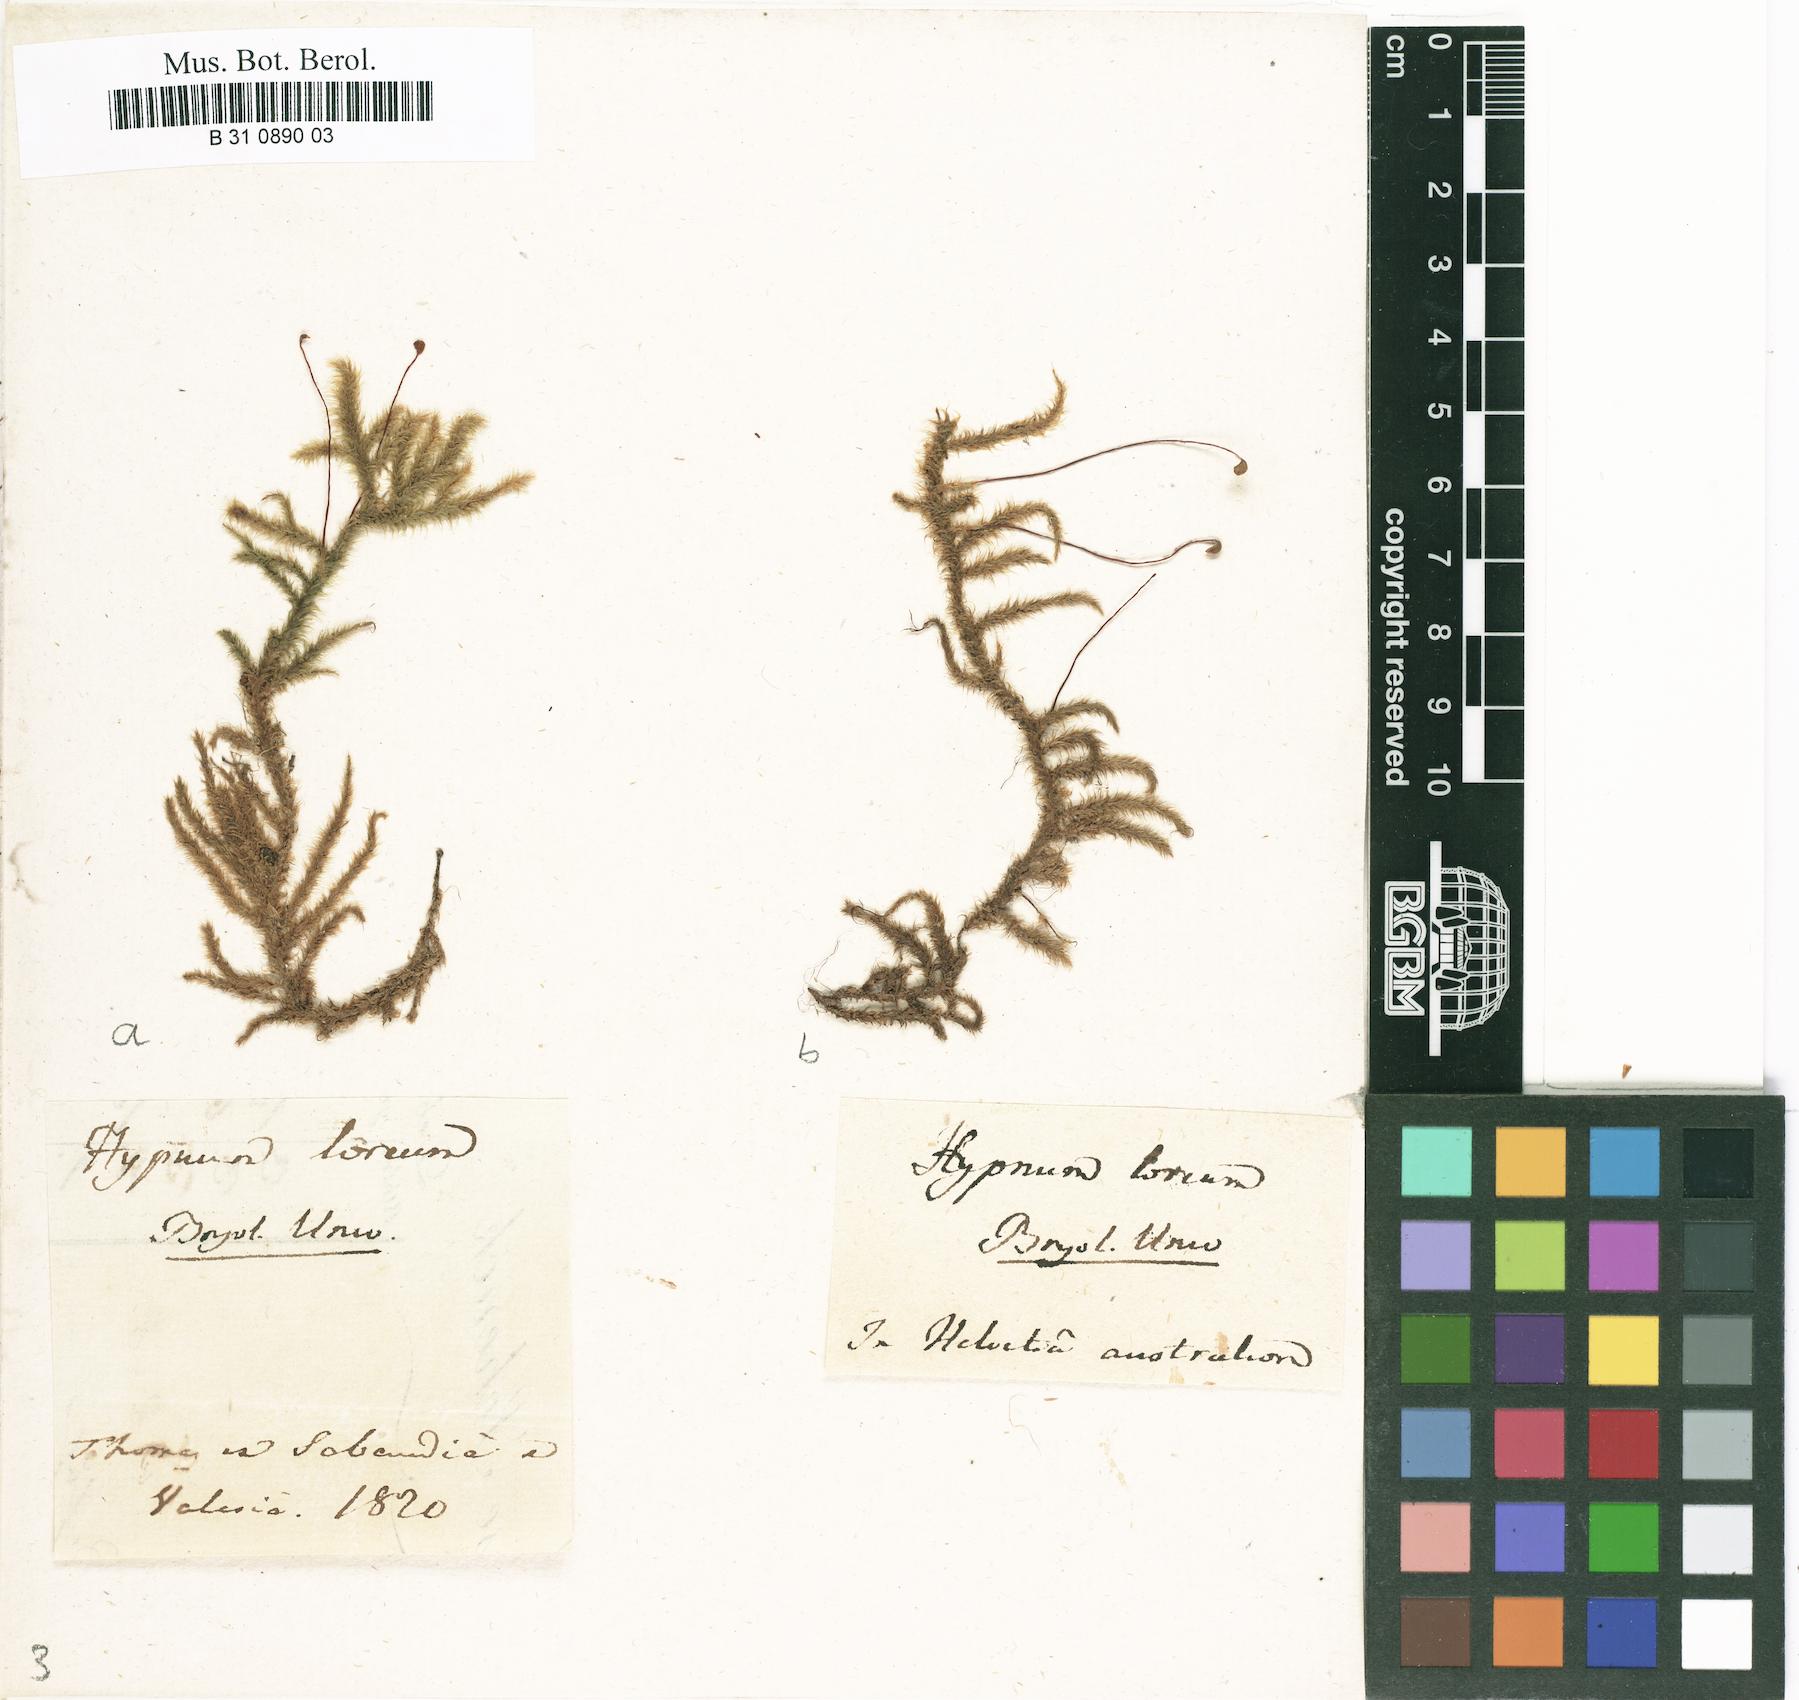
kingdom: Plantae
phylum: Bryophyta
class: Bryopsida
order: Hypnales
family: Hylocomiaceae
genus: Rhytidiadelphus
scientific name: Rhytidiadelphus loreus
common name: Lanky moss
